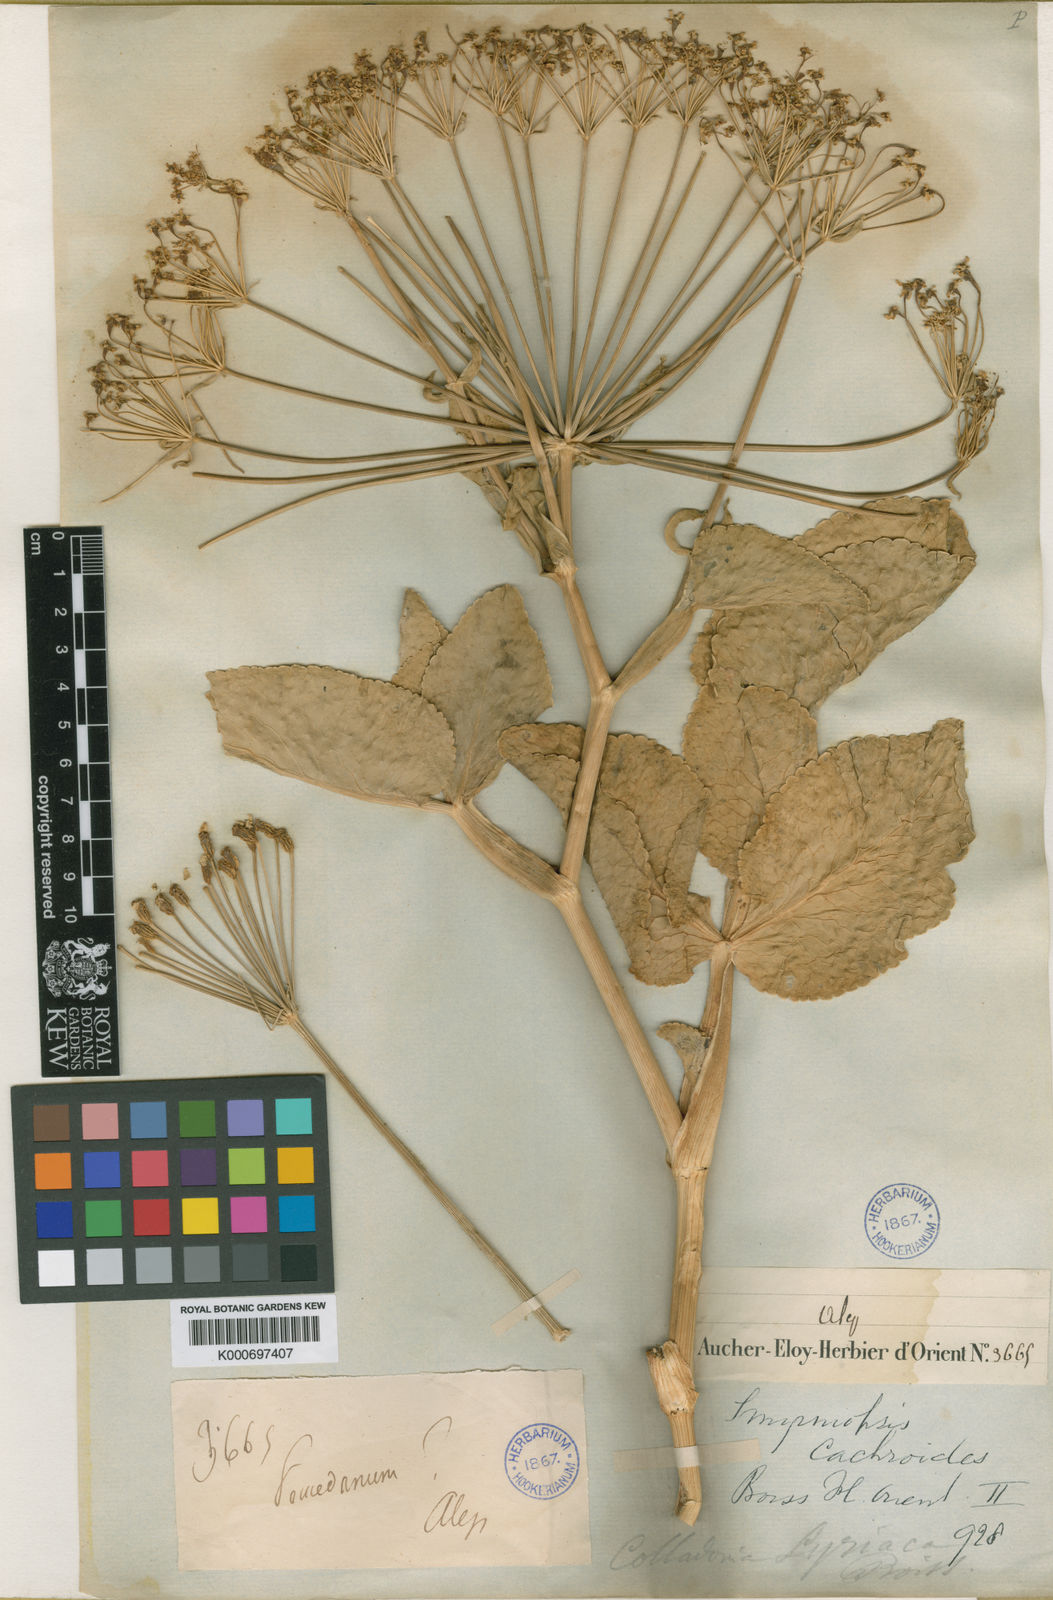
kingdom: Plantae
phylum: Tracheophyta
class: Magnoliopsida
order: Apiales
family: Apiaceae
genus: Petroedmondia
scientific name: Petroedmondia syriaca
